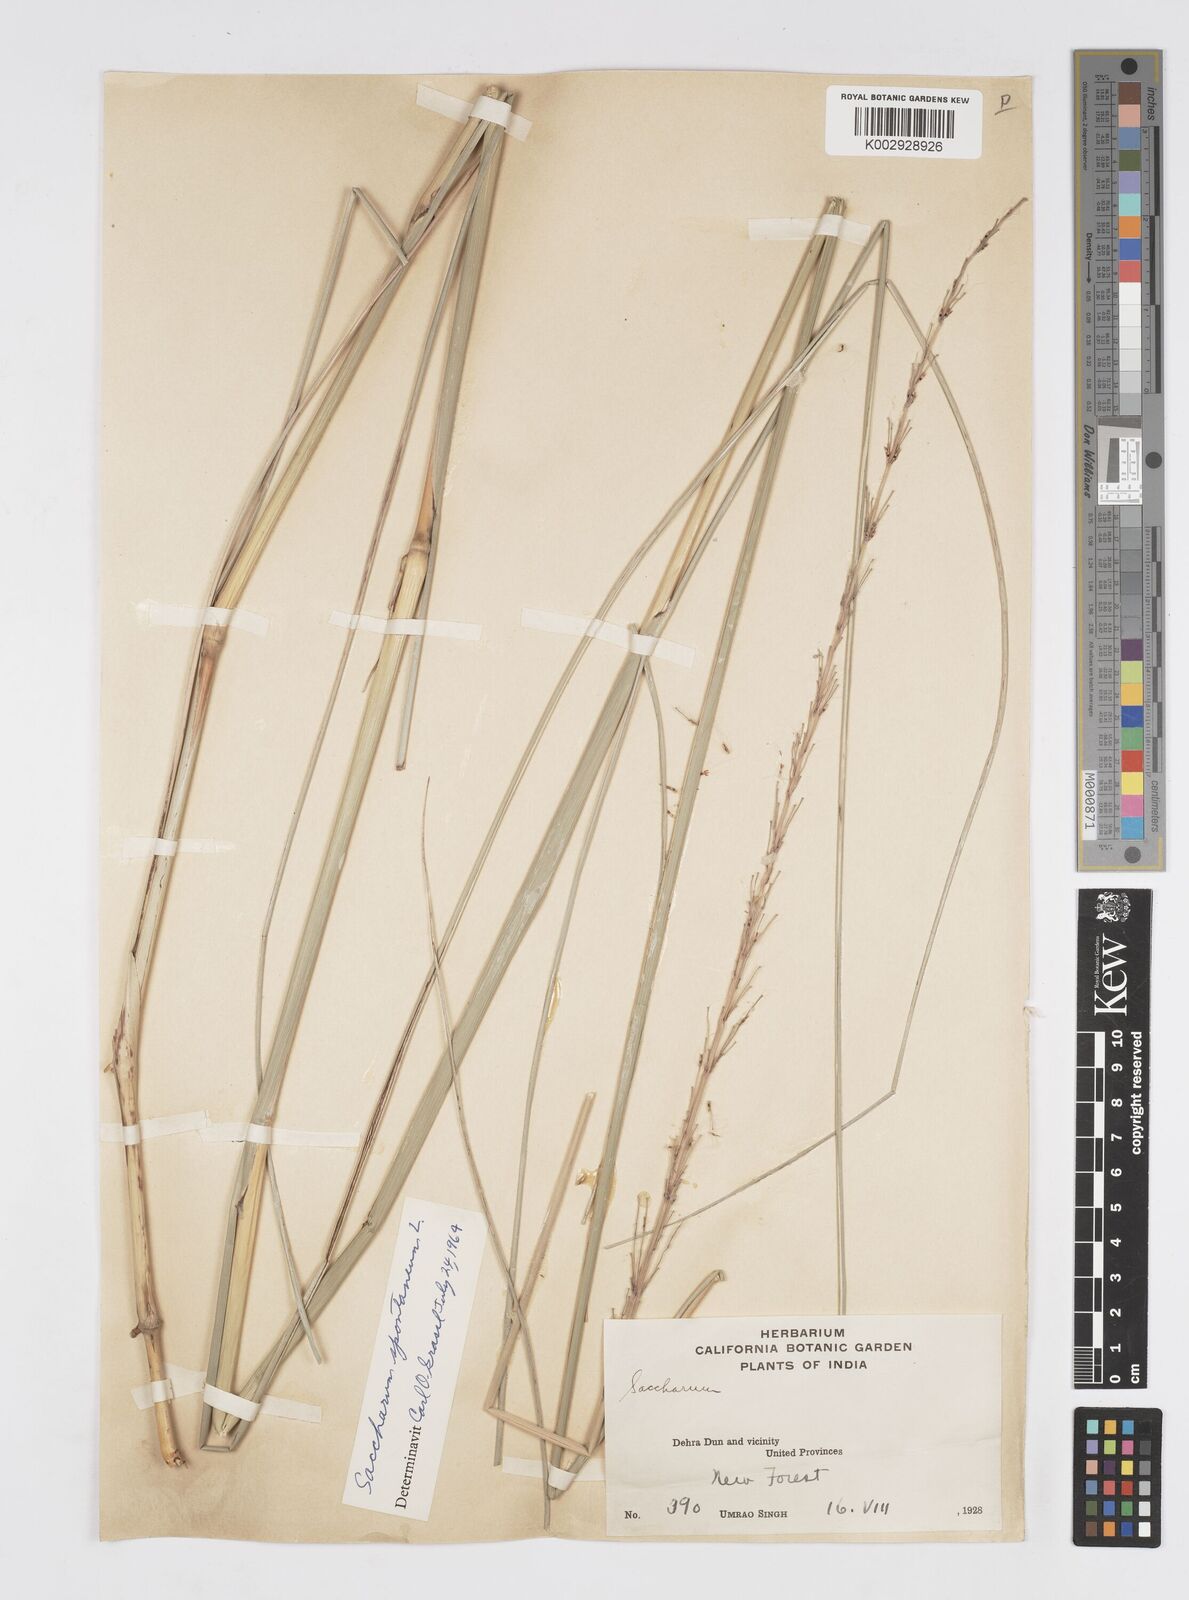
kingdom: Plantae
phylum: Tracheophyta
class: Liliopsida
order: Poales
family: Poaceae
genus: Saccharum
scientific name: Saccharum spontaneum
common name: Wild sugarcane
